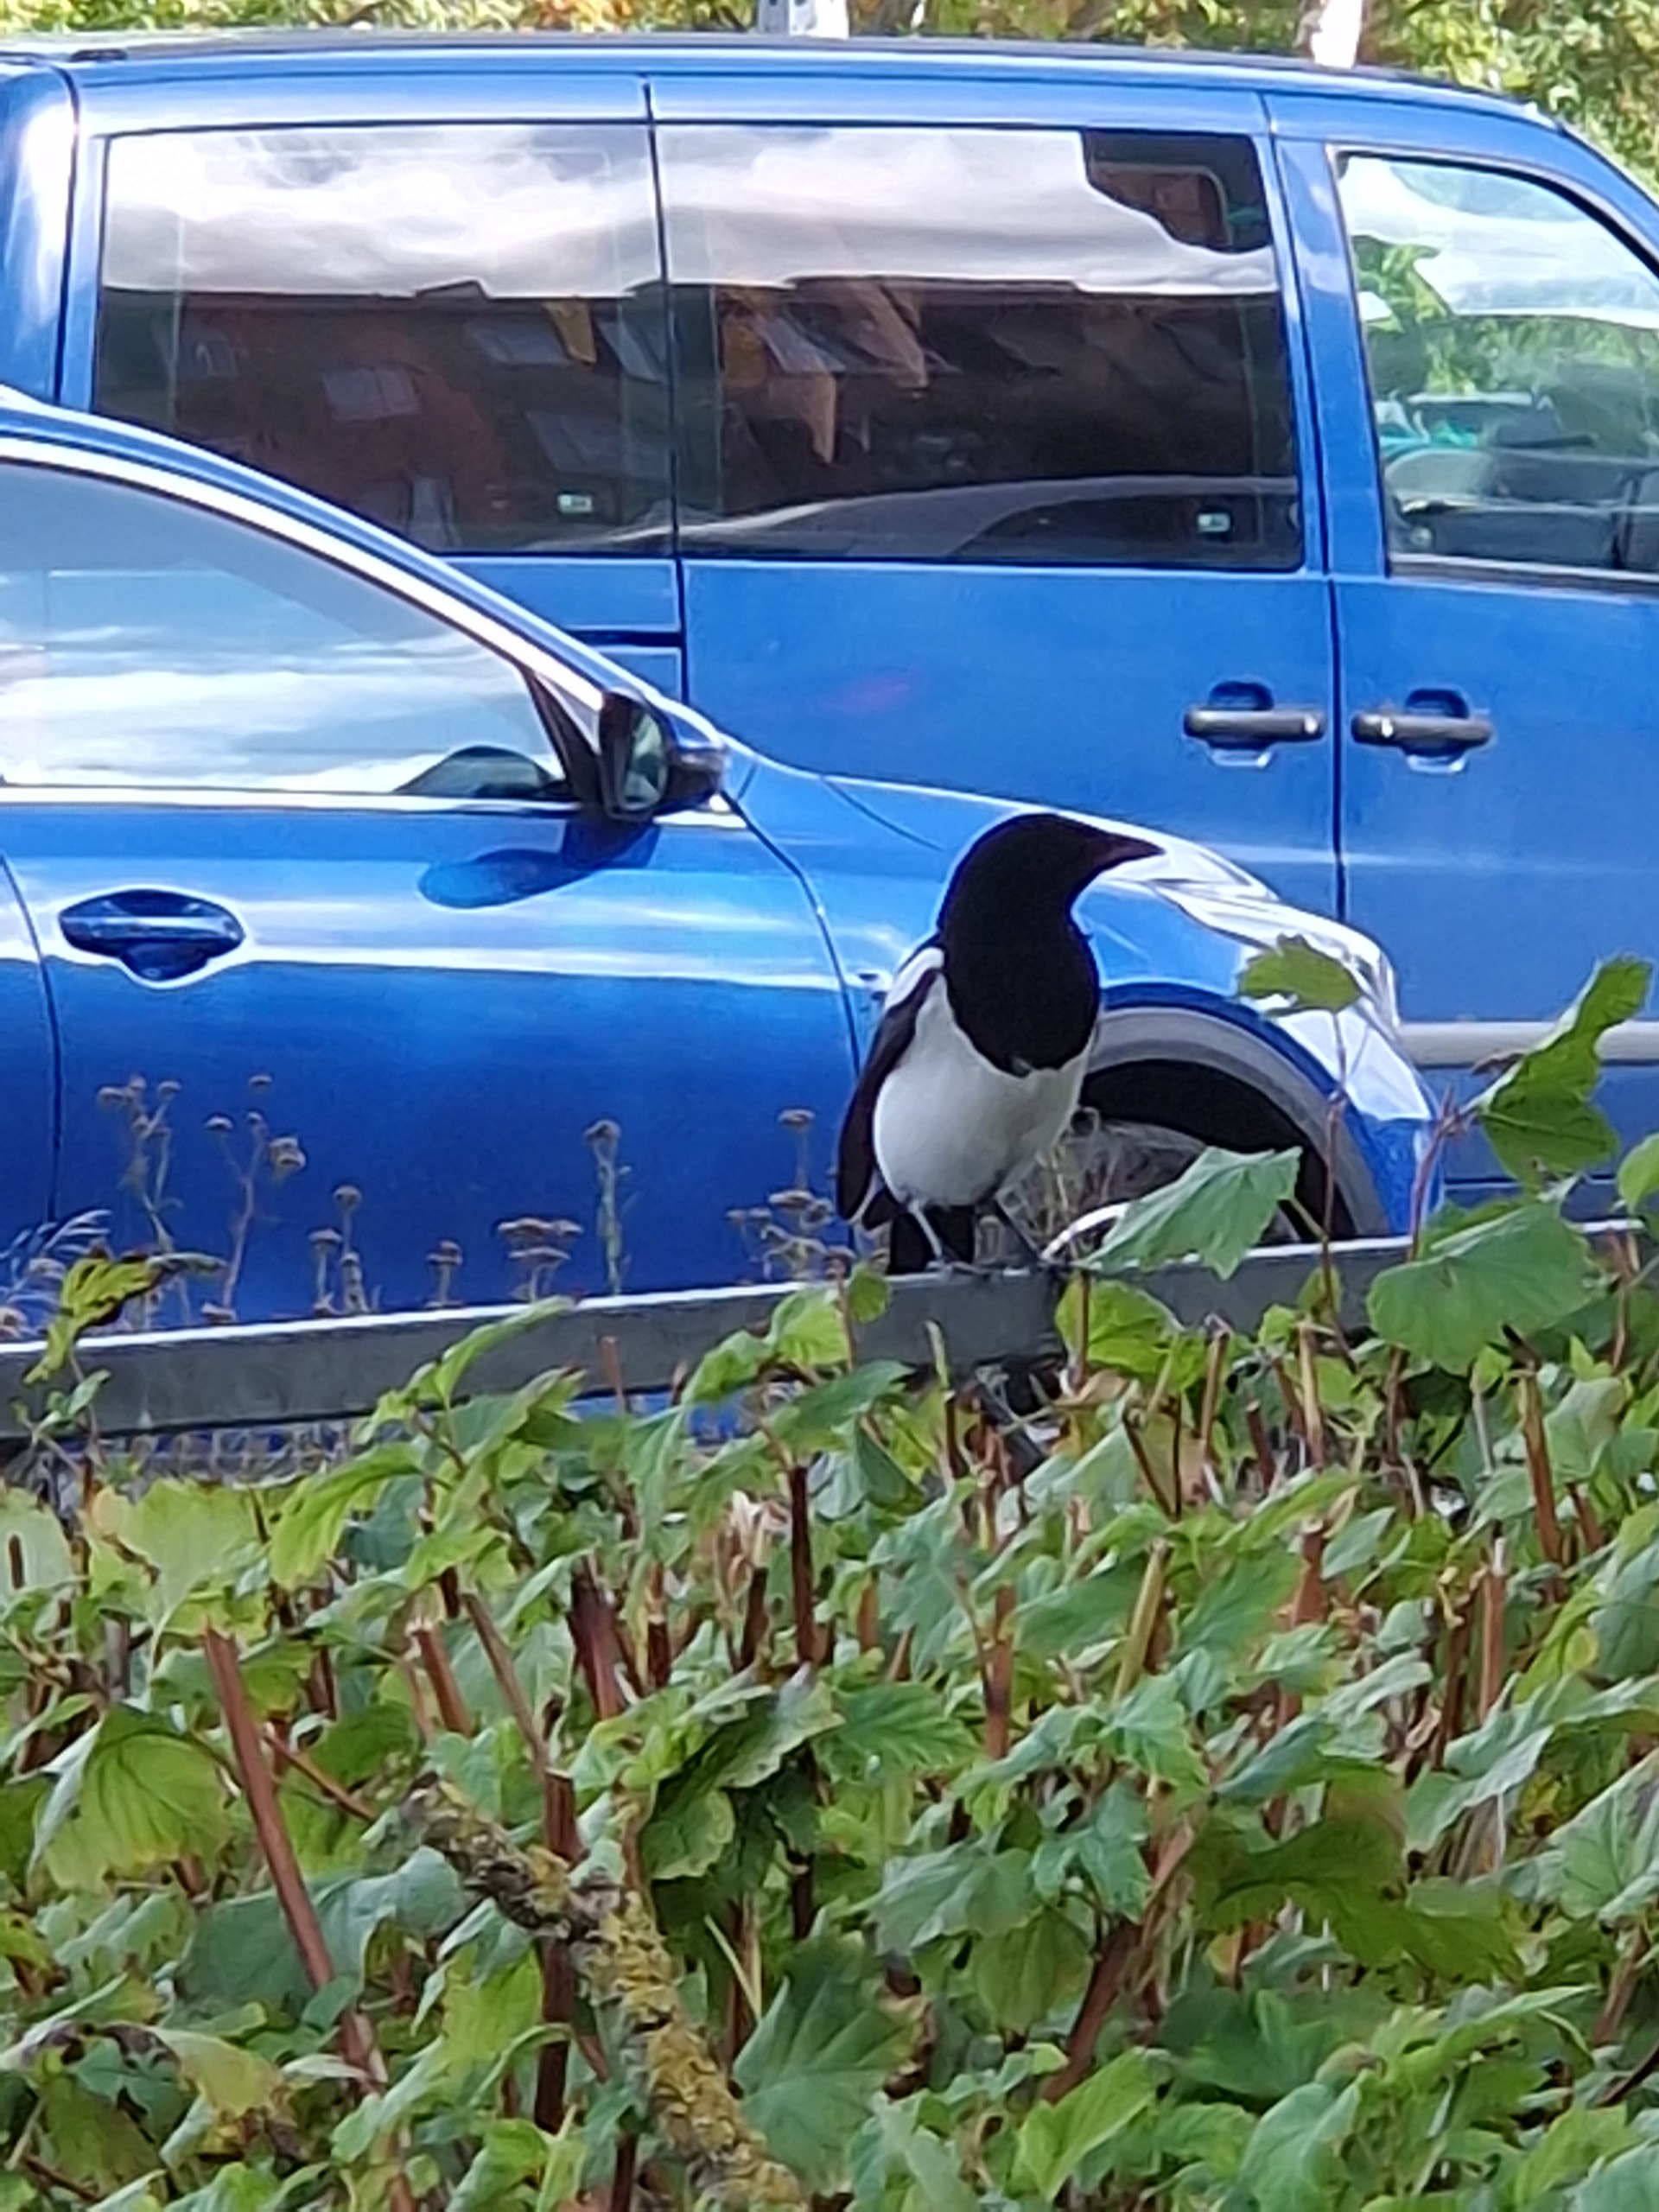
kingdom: Animalia
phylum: Chordata
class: Aves
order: Passeriformes
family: Corvidae
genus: Pica
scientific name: Pica pica
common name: Husskade
